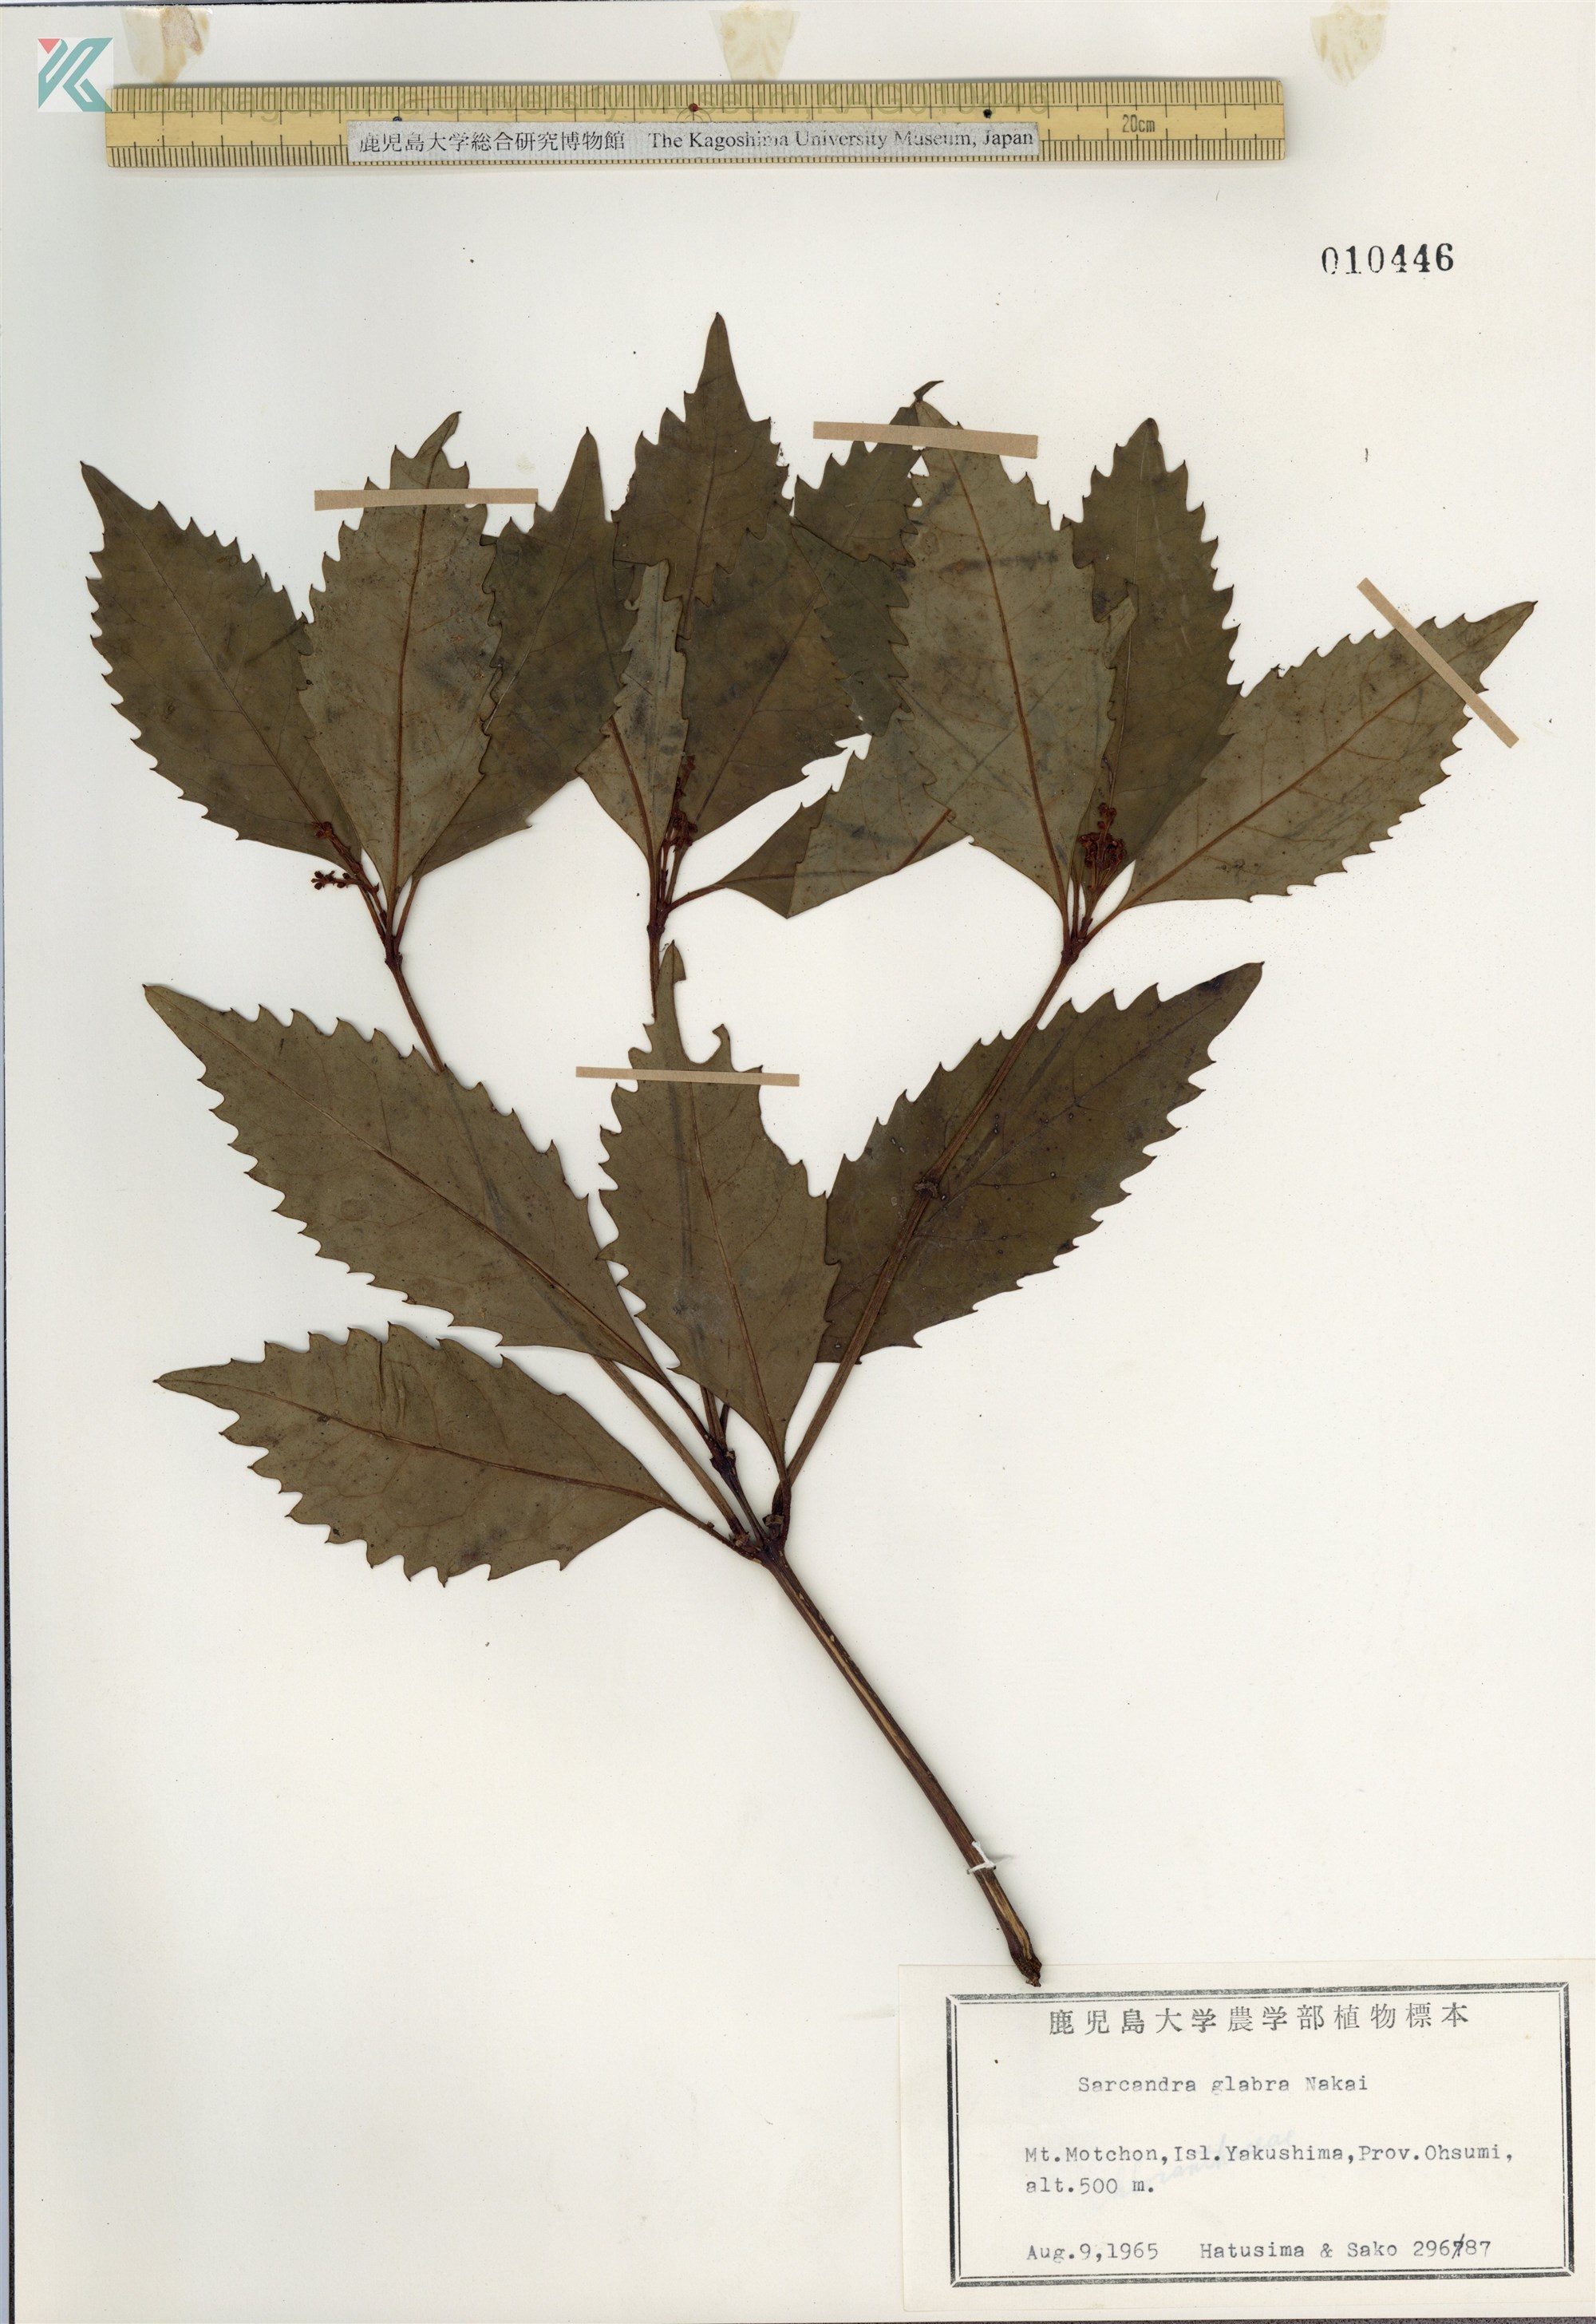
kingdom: Plantae
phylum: Tracheophyta
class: Magnoliopsida
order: Chloranthales
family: Chloranthaceae
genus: Sarcandra
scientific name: Sarcandra glabra
